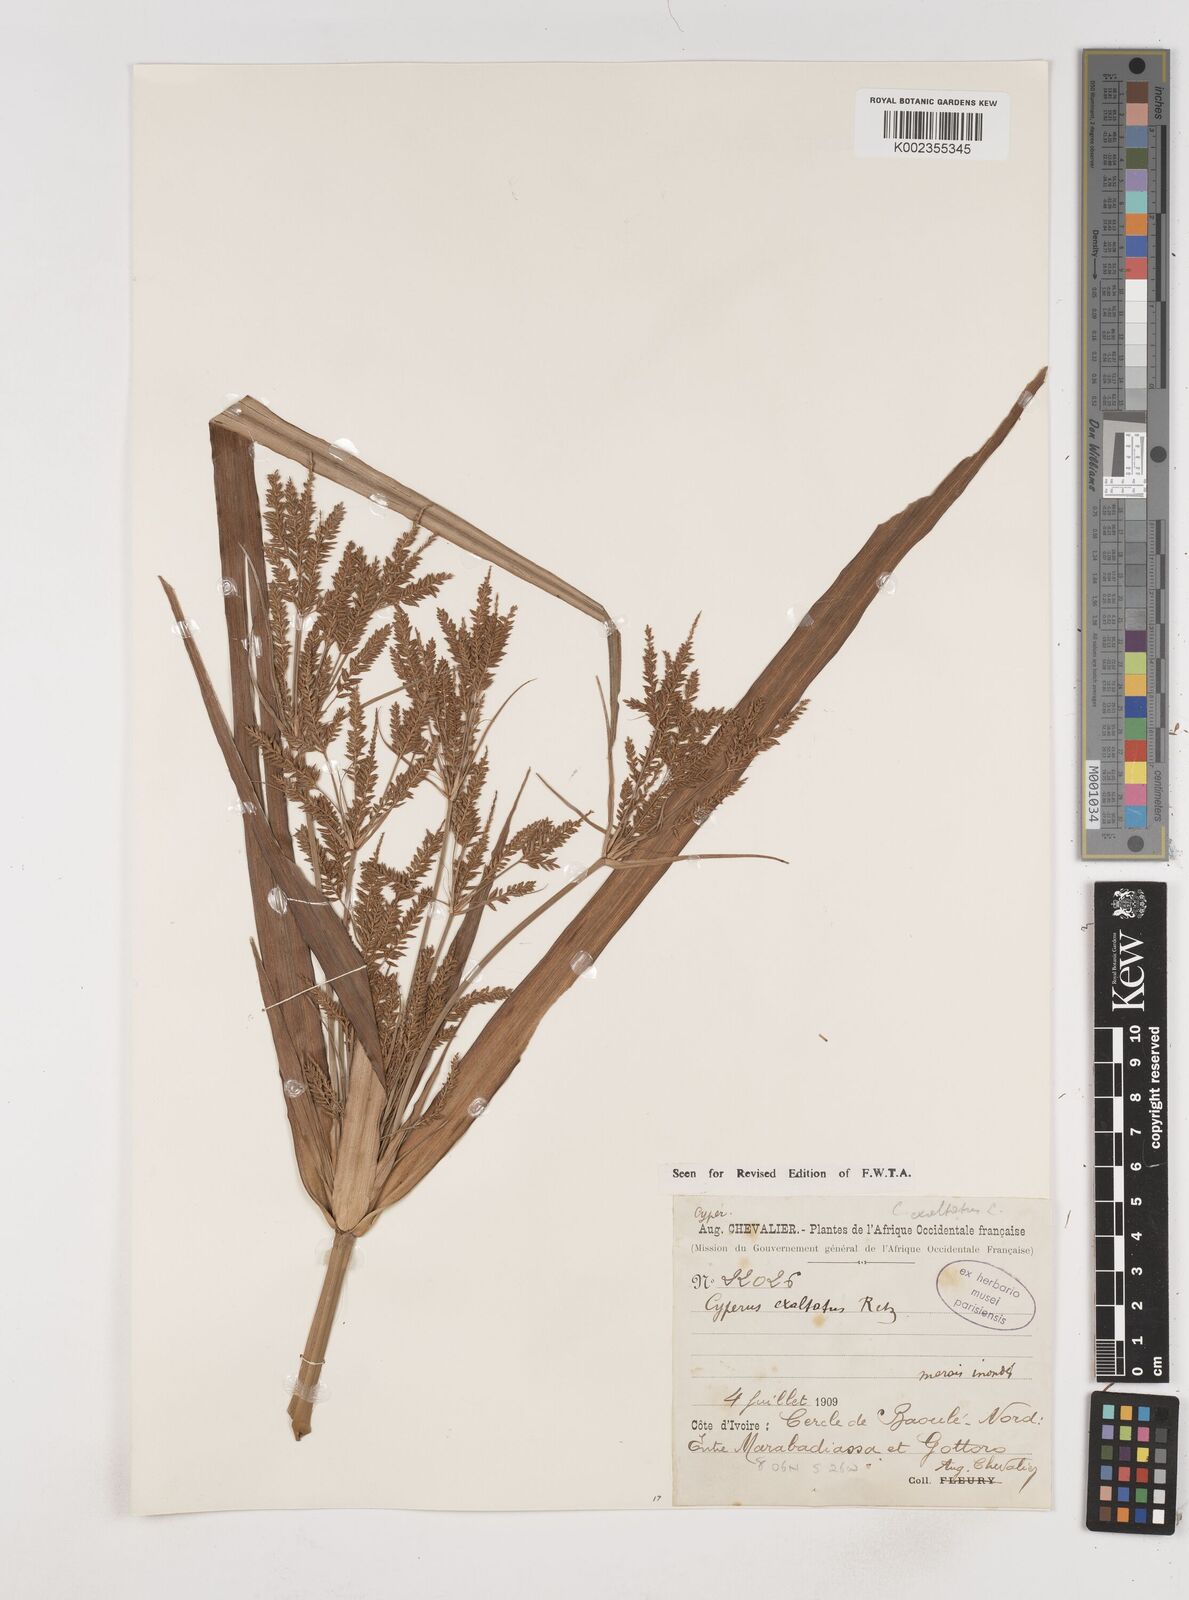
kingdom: Plantae
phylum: Tracheophyta
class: Liliopsida
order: Poales
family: Cyperaceae
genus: Cyperus
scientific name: Cyperus exaltatus
